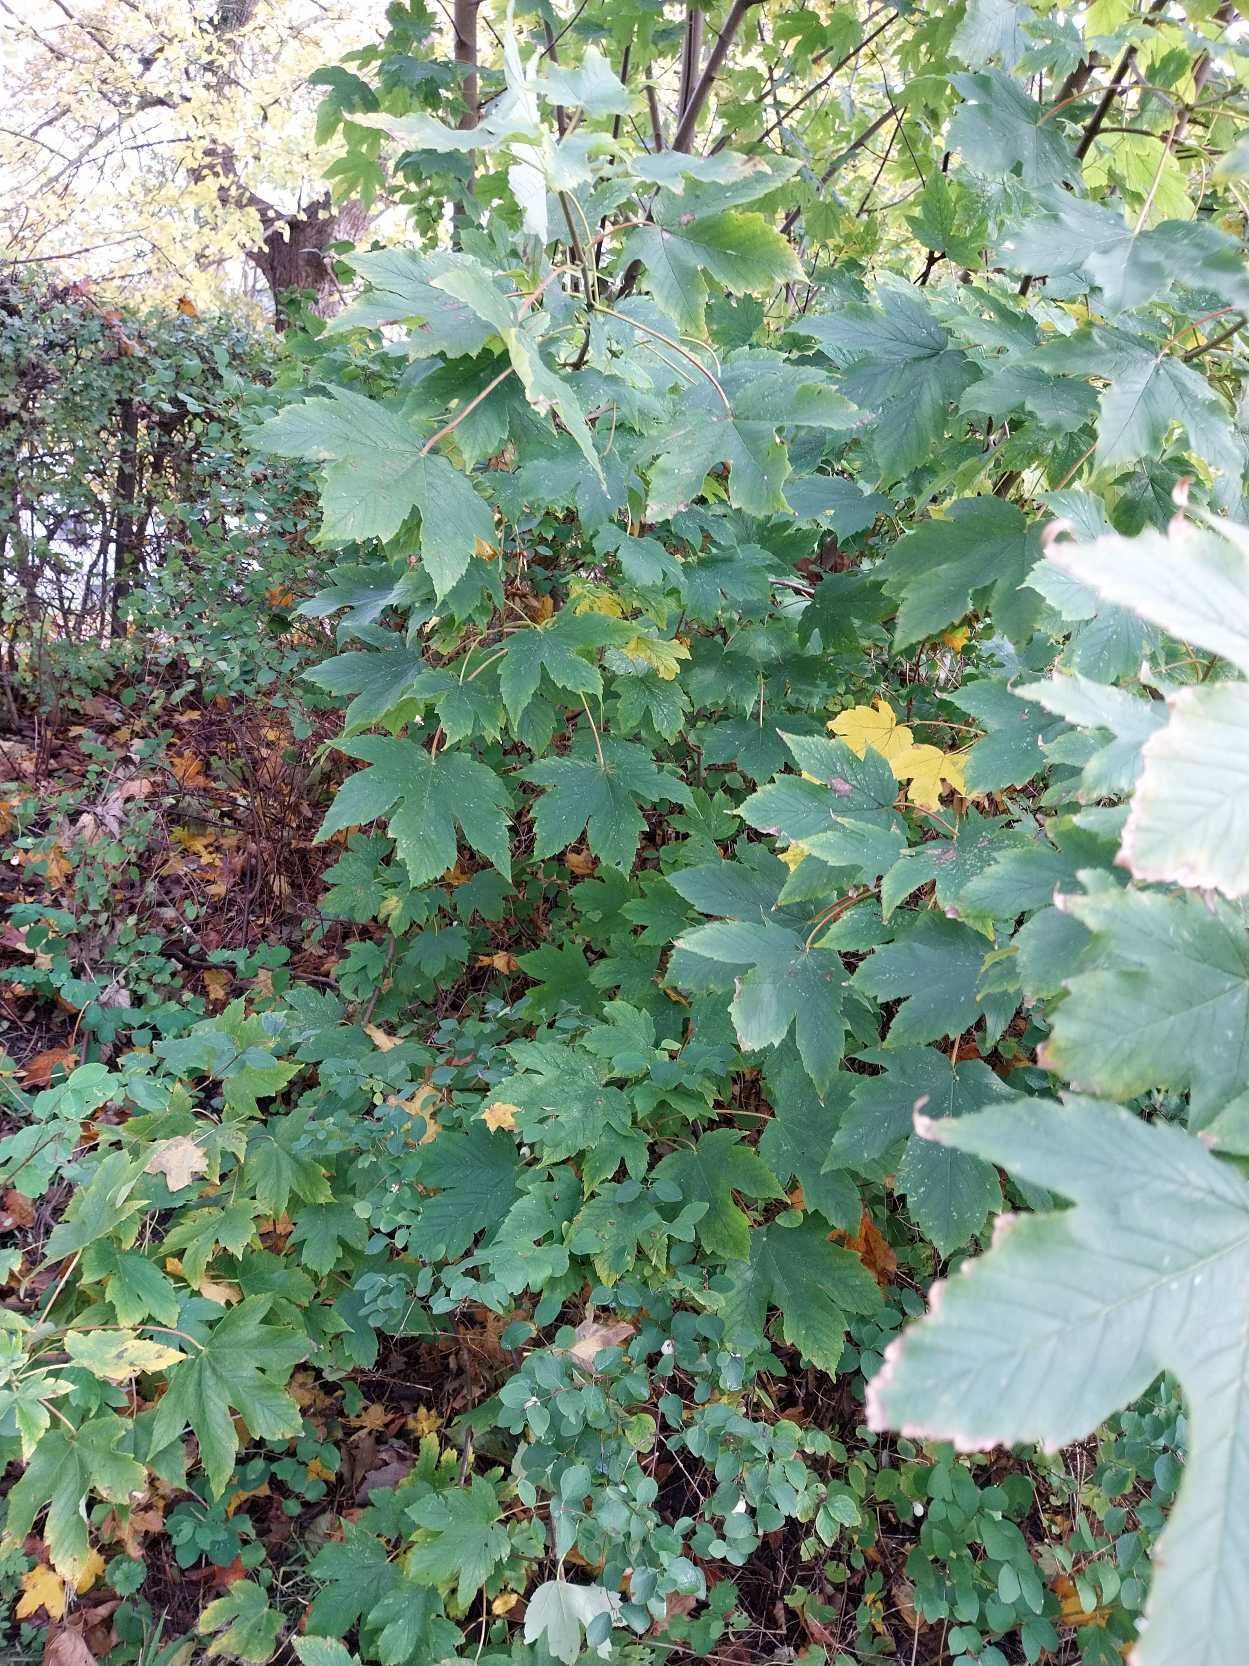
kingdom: Plantae
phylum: Tracheophyta
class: Magnoliopsida
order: Sapindales
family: Sapindaceae
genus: Acer
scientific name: Acer pseudoplatanus
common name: Ahorn
